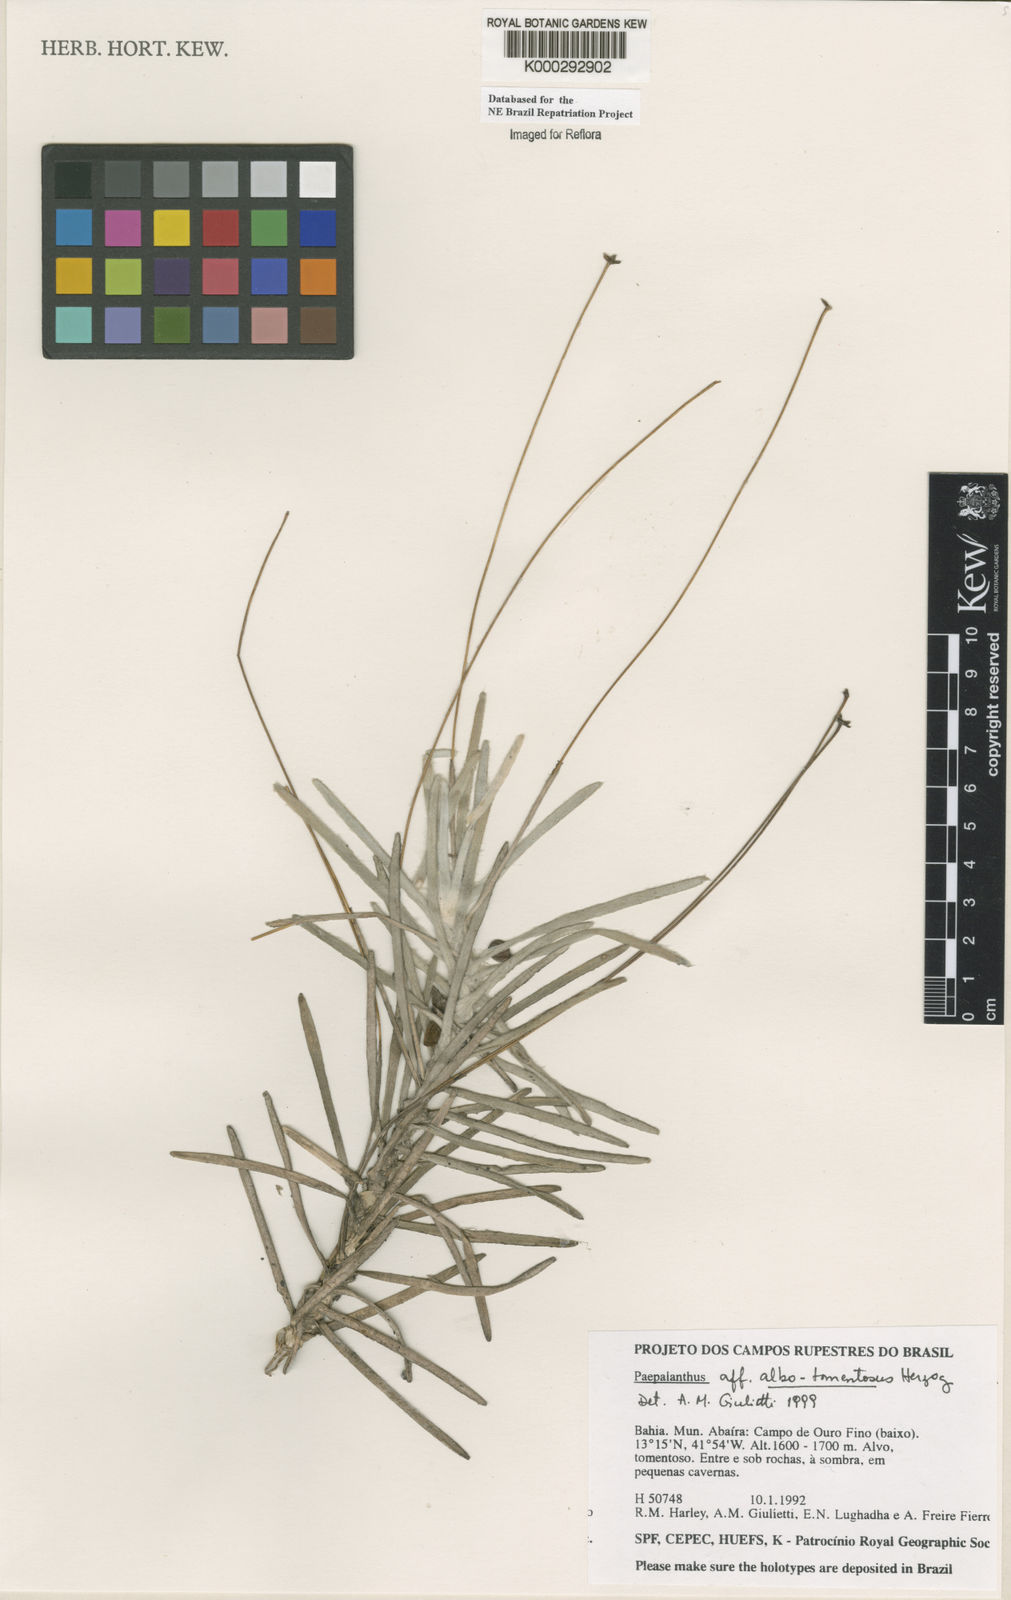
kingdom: Plantae
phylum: Tracheophyta
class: Liliopsida
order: Poales
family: Eriocaulaceae
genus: Paepalanthus
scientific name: Paepalanthus albotomentosus
